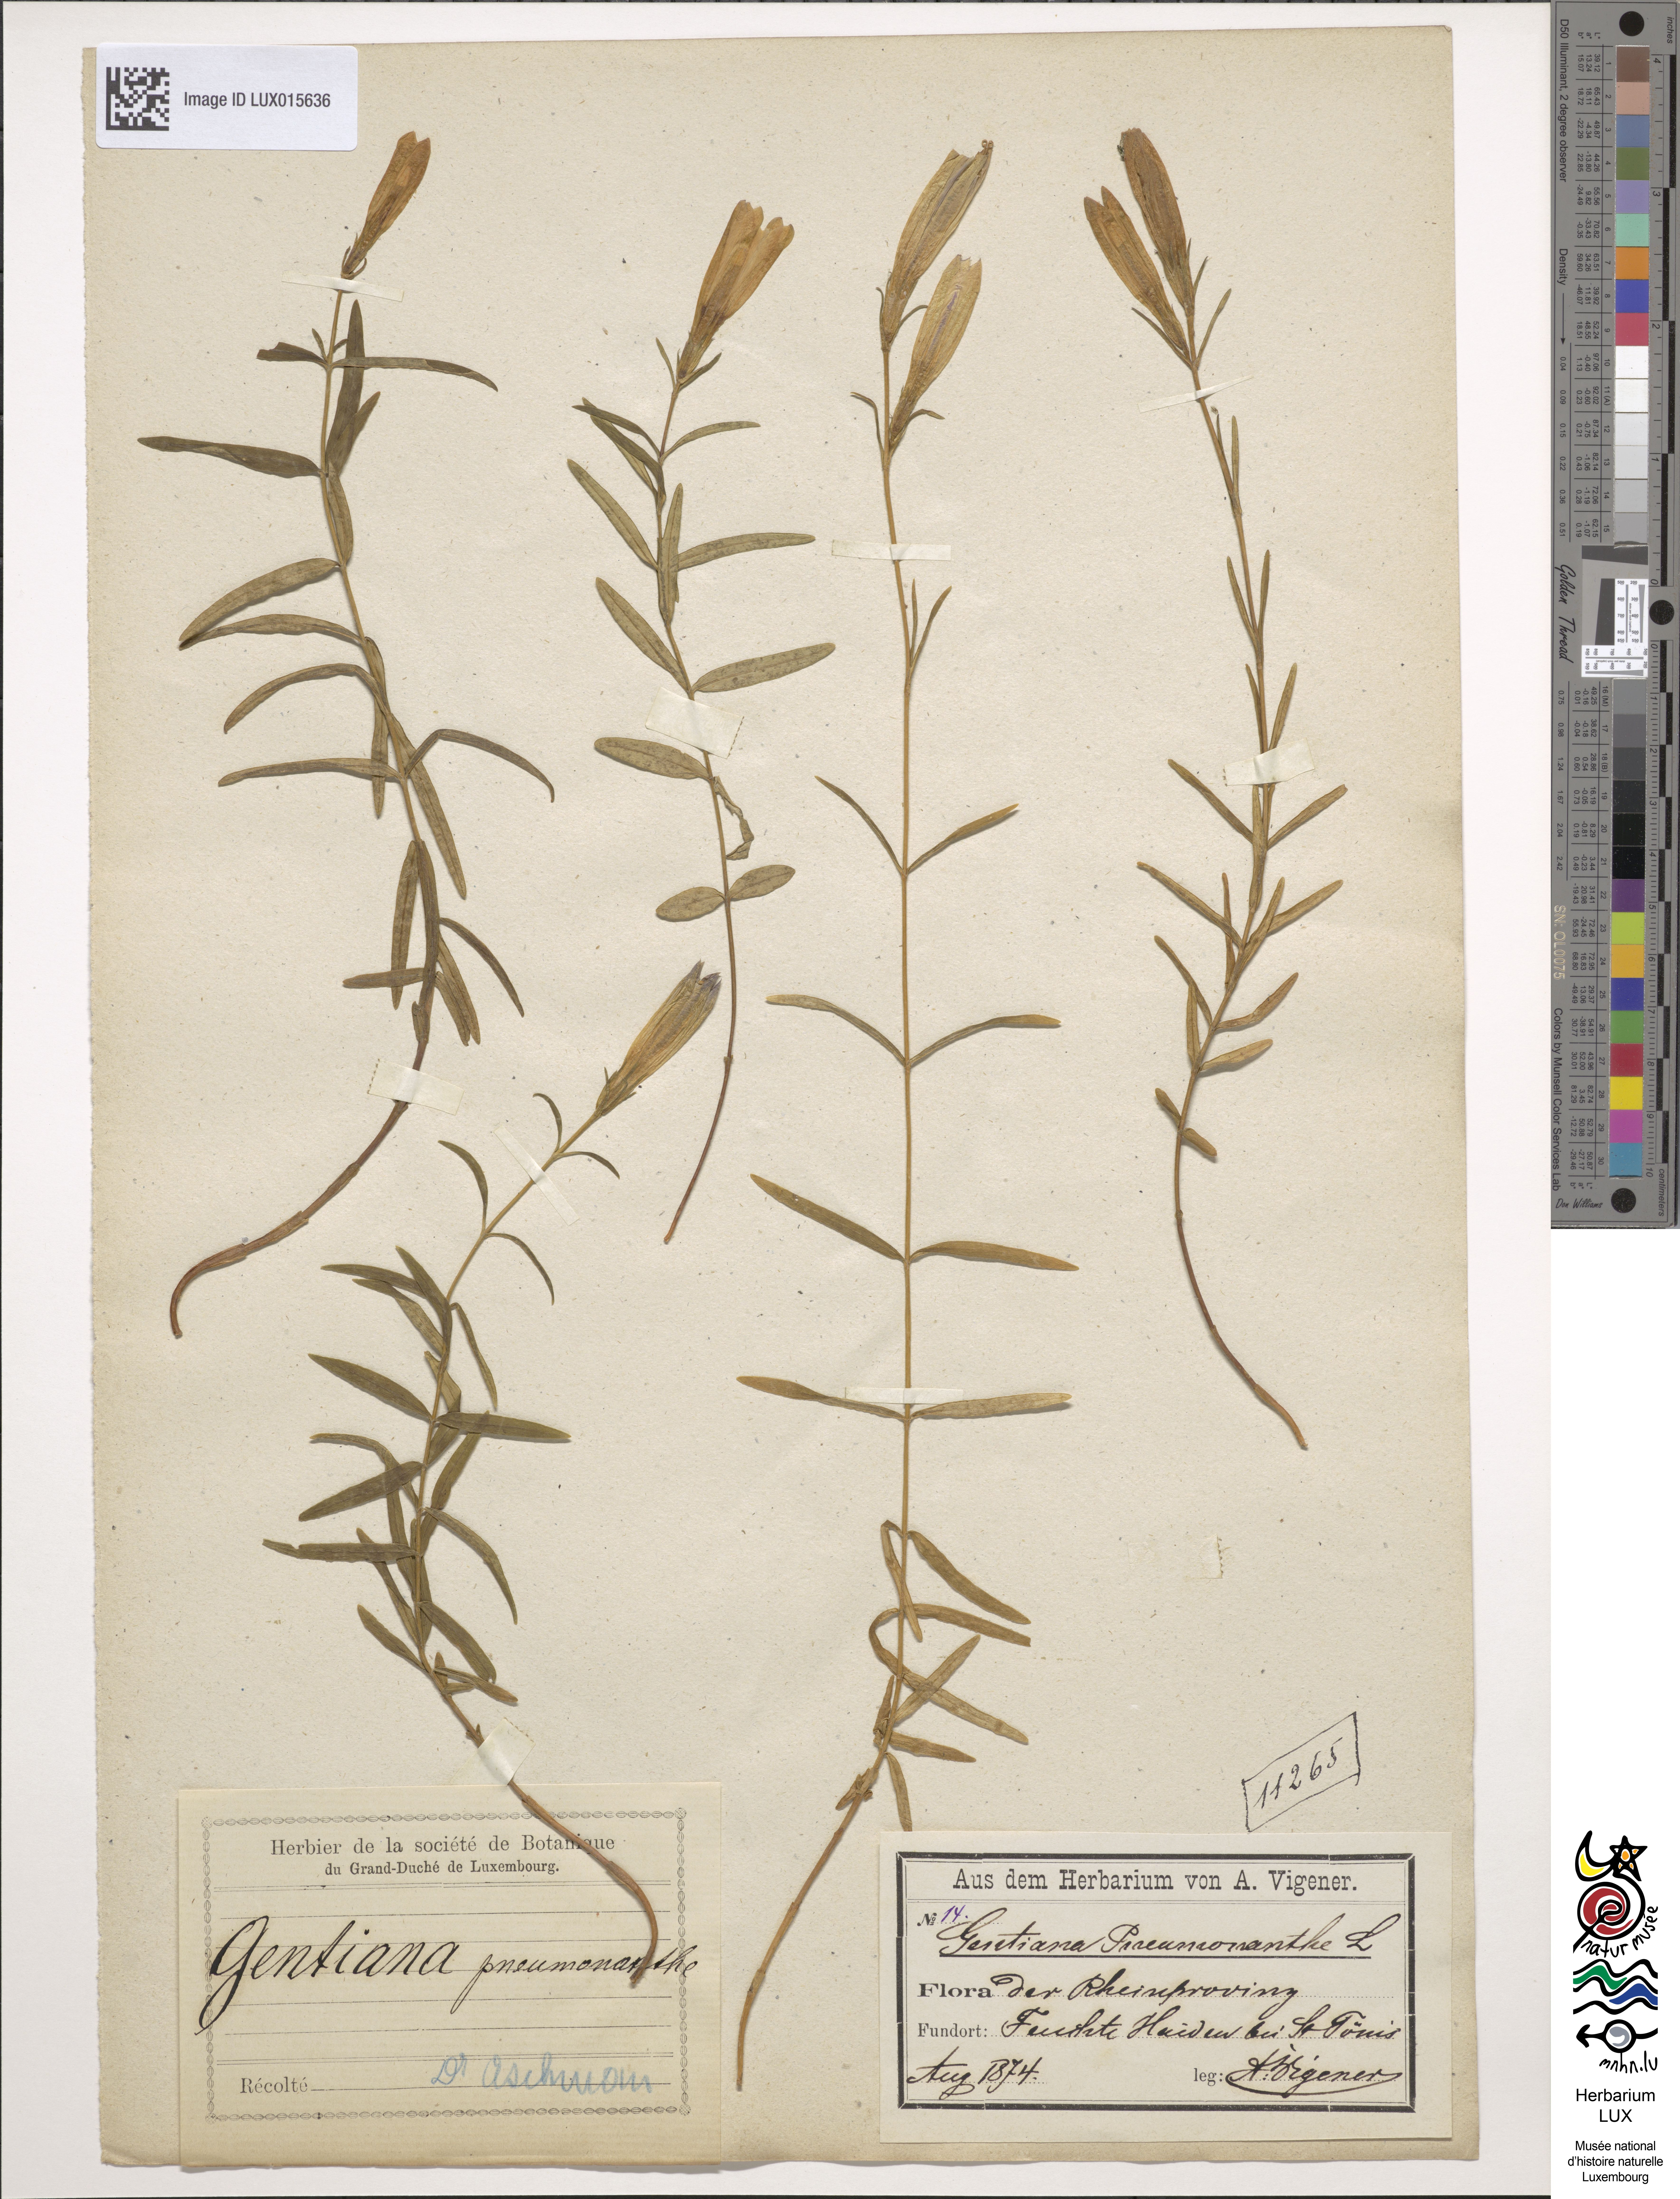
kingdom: Plantae
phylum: Tracheophyta
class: Magnoliopsida
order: Gentianales
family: Gentianaceae
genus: Gentiana
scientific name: Gentiana pneumonanthe
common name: Marsh gentian
